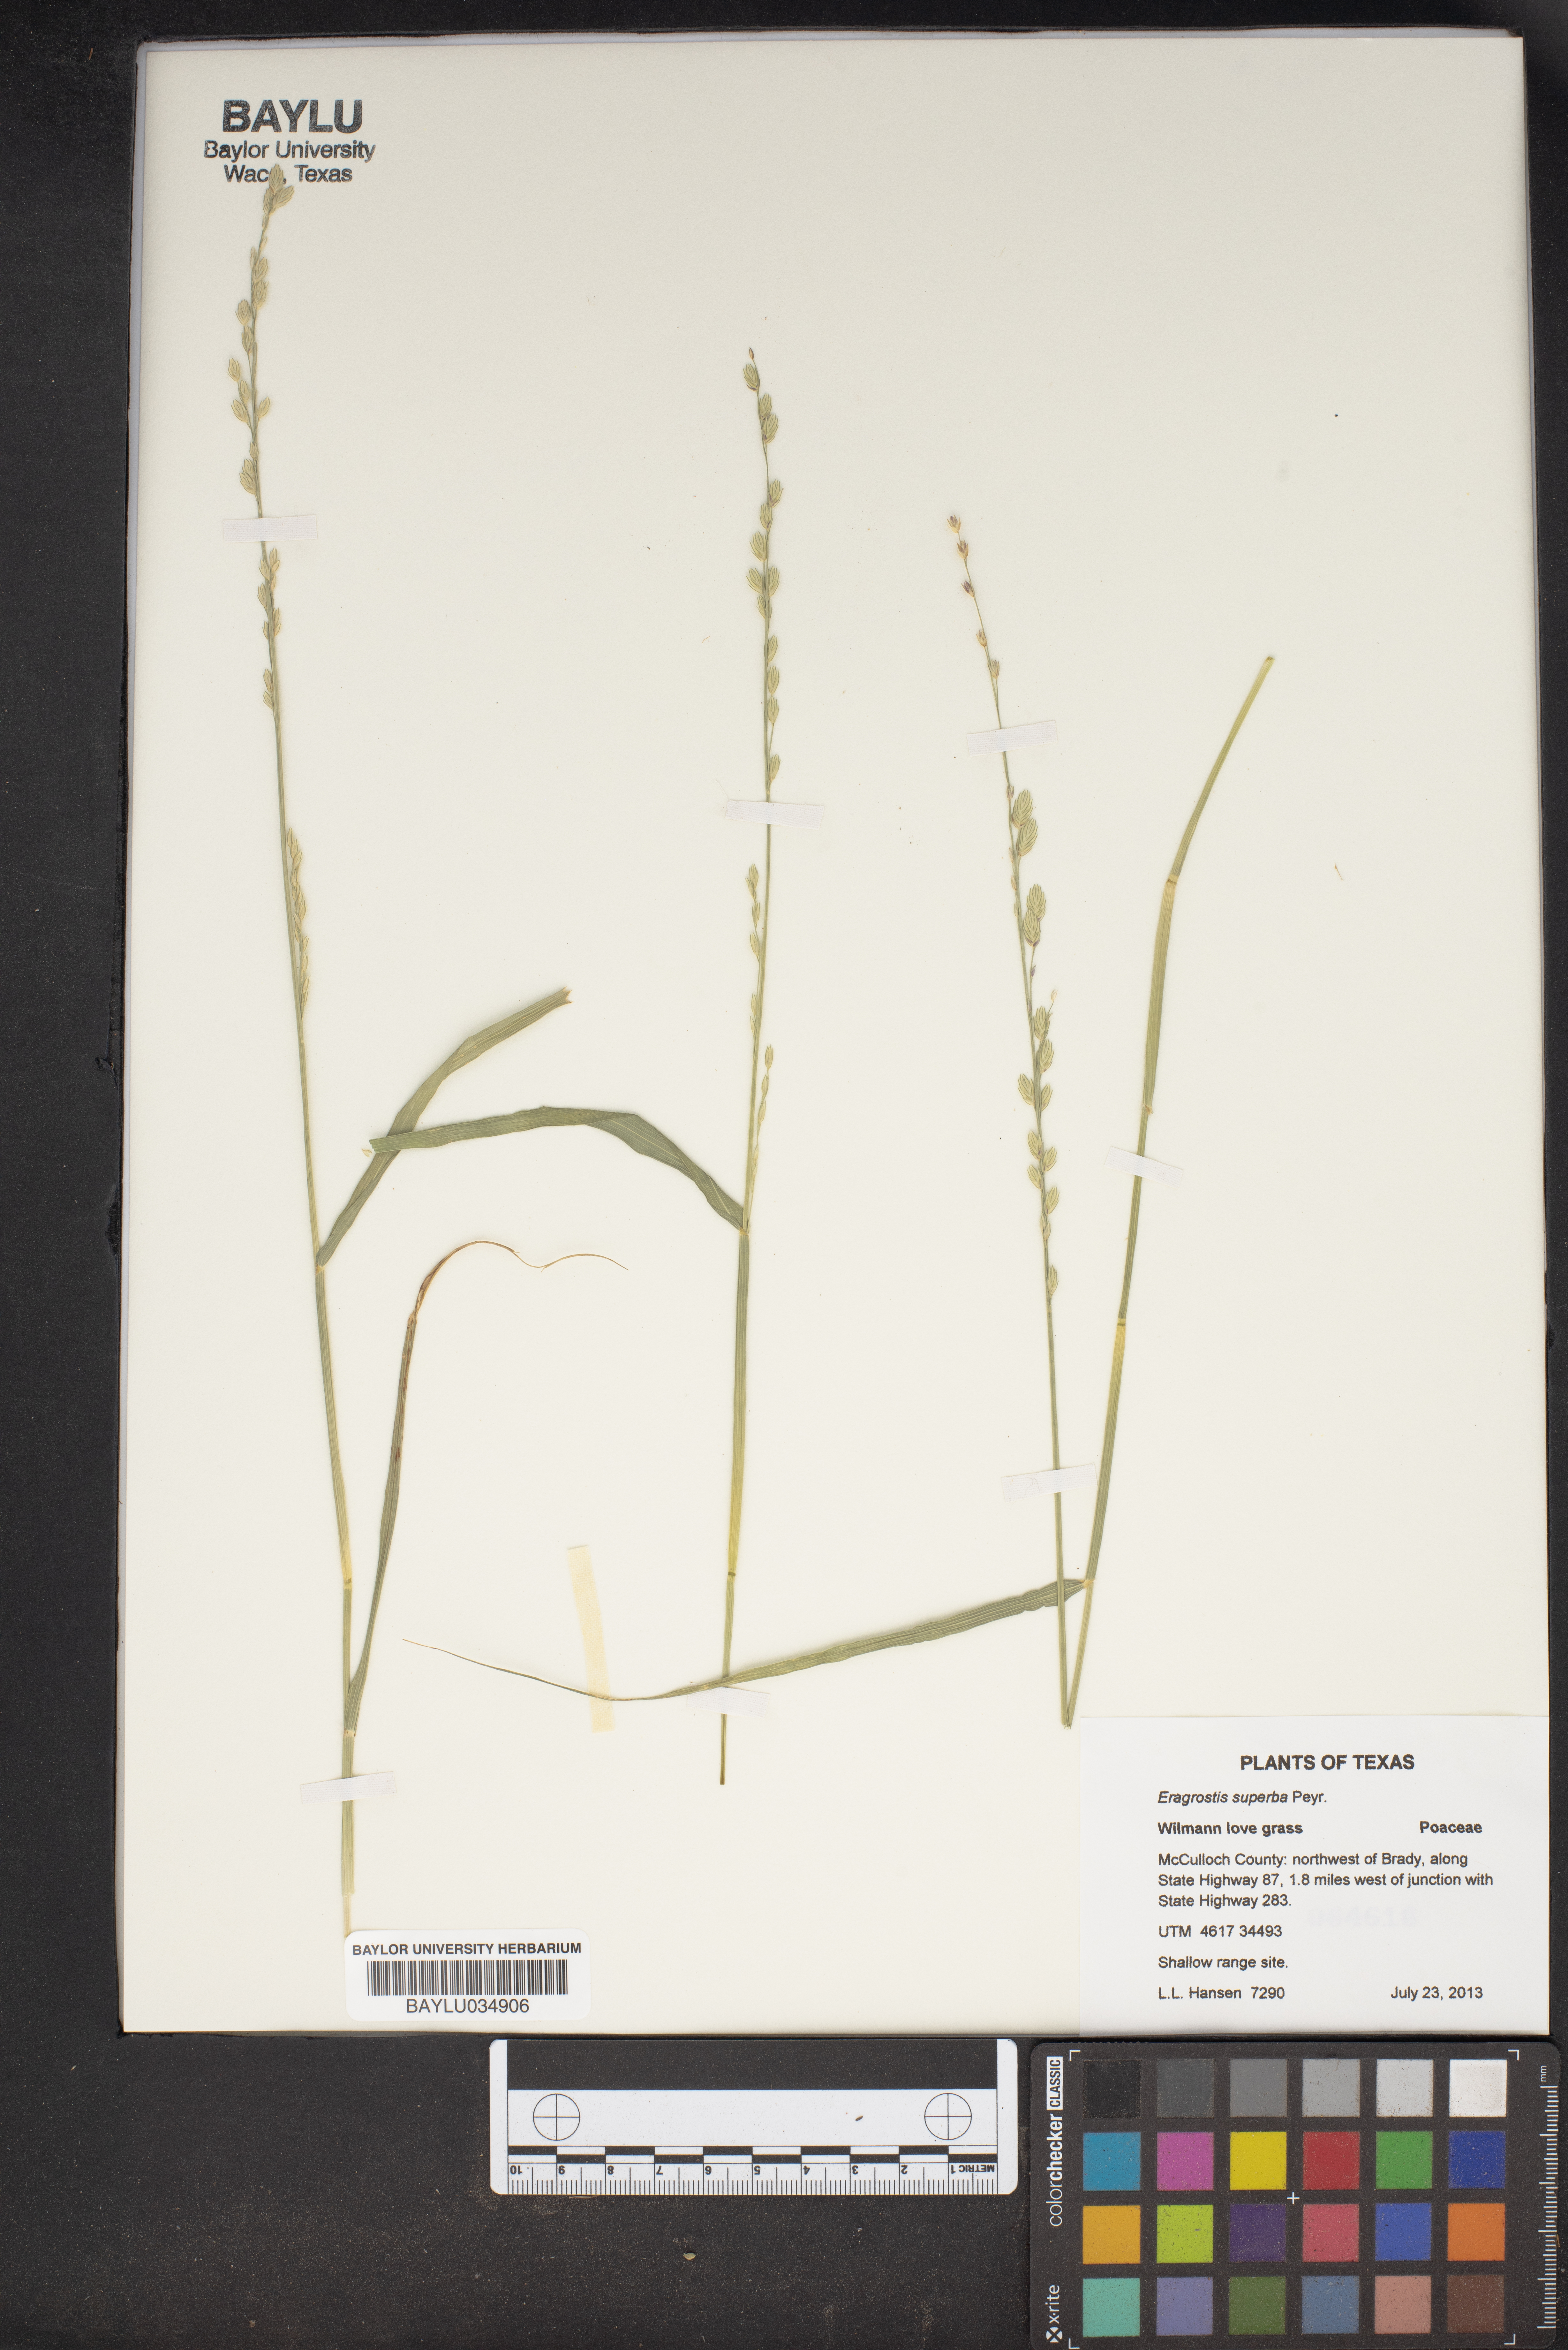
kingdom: Plantae
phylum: Tracheophyta
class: Liliopsida
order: Poales
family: Poaceae
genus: Eragrostis
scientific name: Eragrostis superba
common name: Wilman lovegrass
